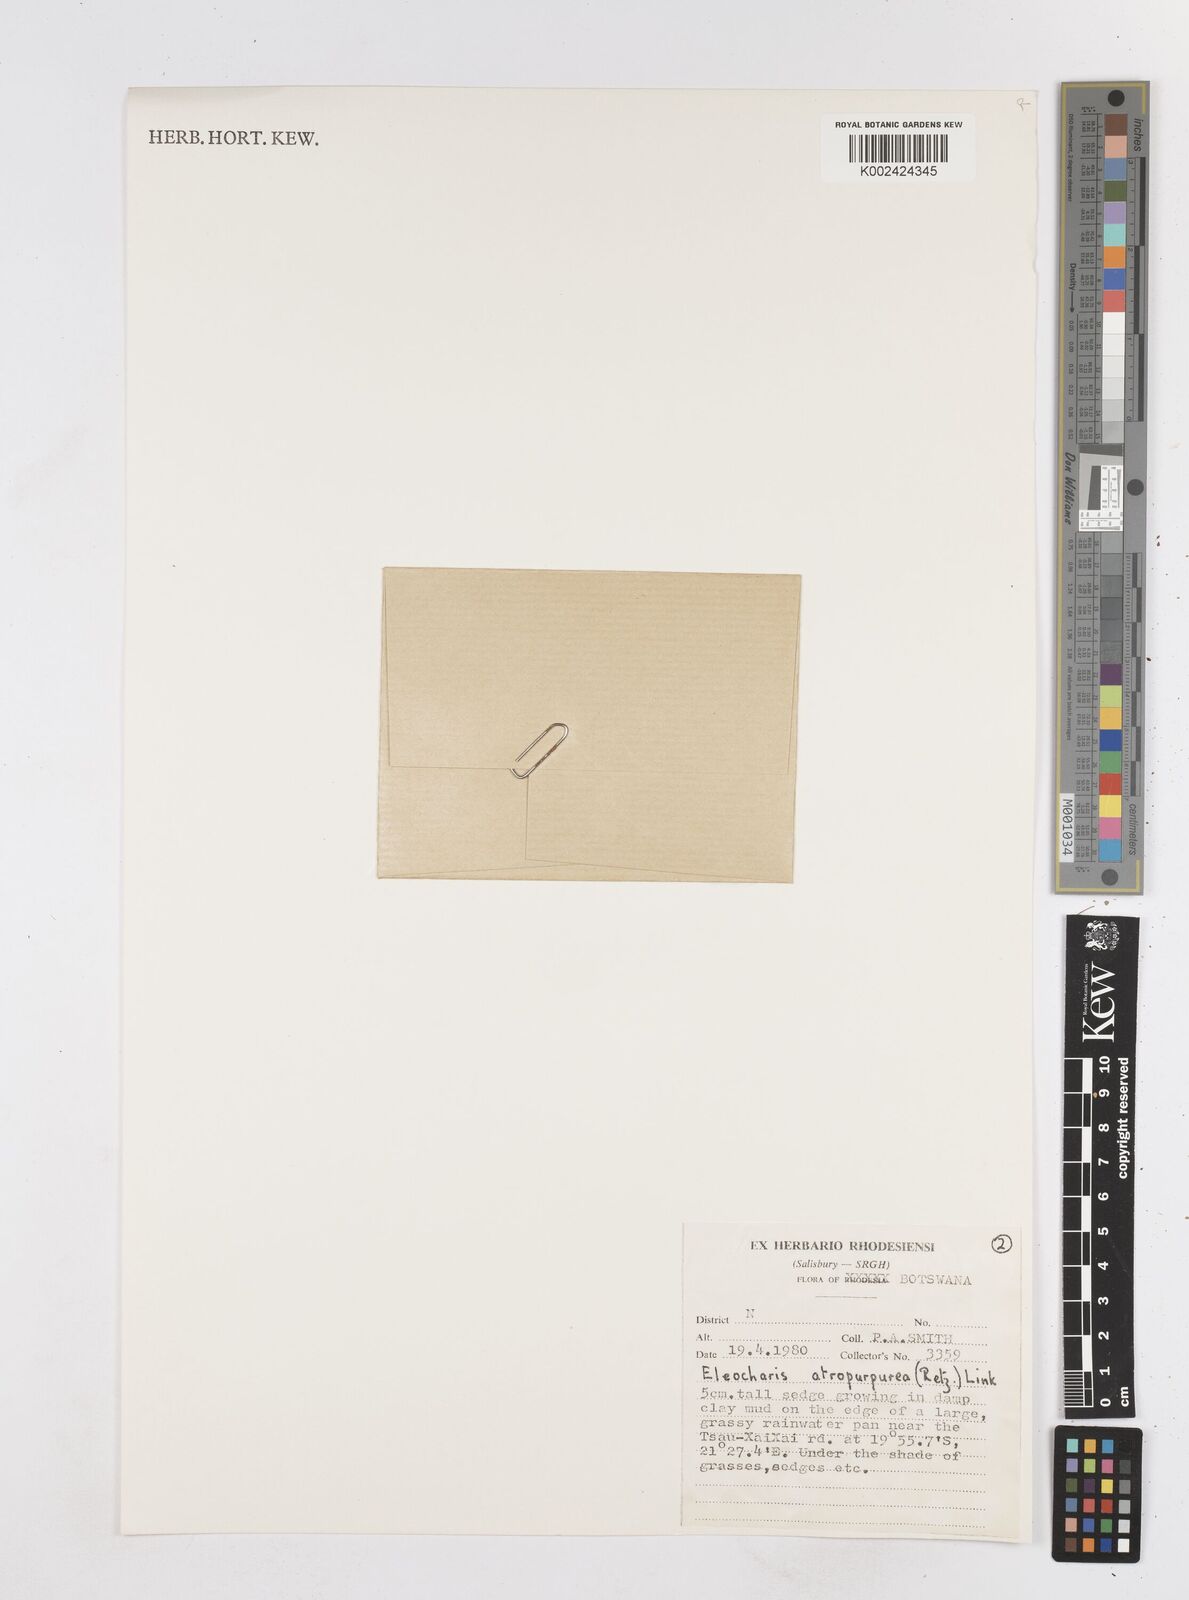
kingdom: Plantae
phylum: Tracheophyta
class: Liliopsida
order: Poales
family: Cyperaceae
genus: Eleocharis
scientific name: Eleocharis atropurpurea
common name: Purple spikerush
